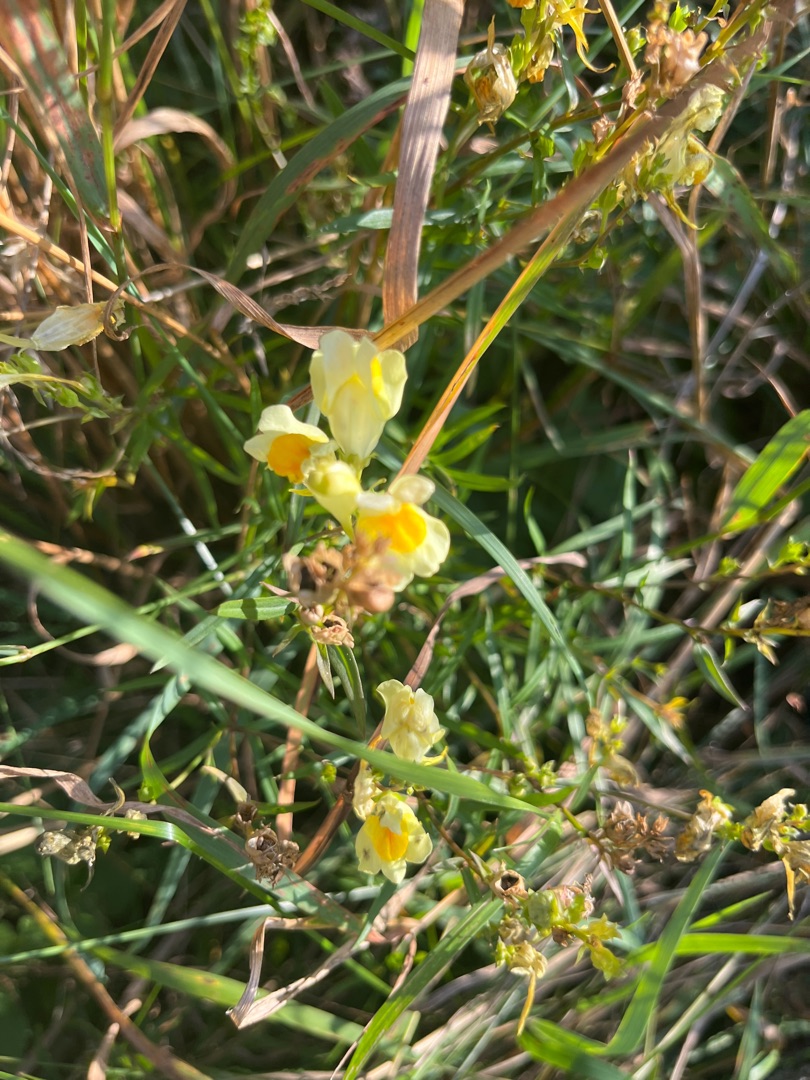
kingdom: Plantae
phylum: Tracheophyta
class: Magnoliopsida
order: Lamiales
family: Plantaginaceae
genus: Linaria
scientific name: Linaria vulgaris
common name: Almindelig torskemund
